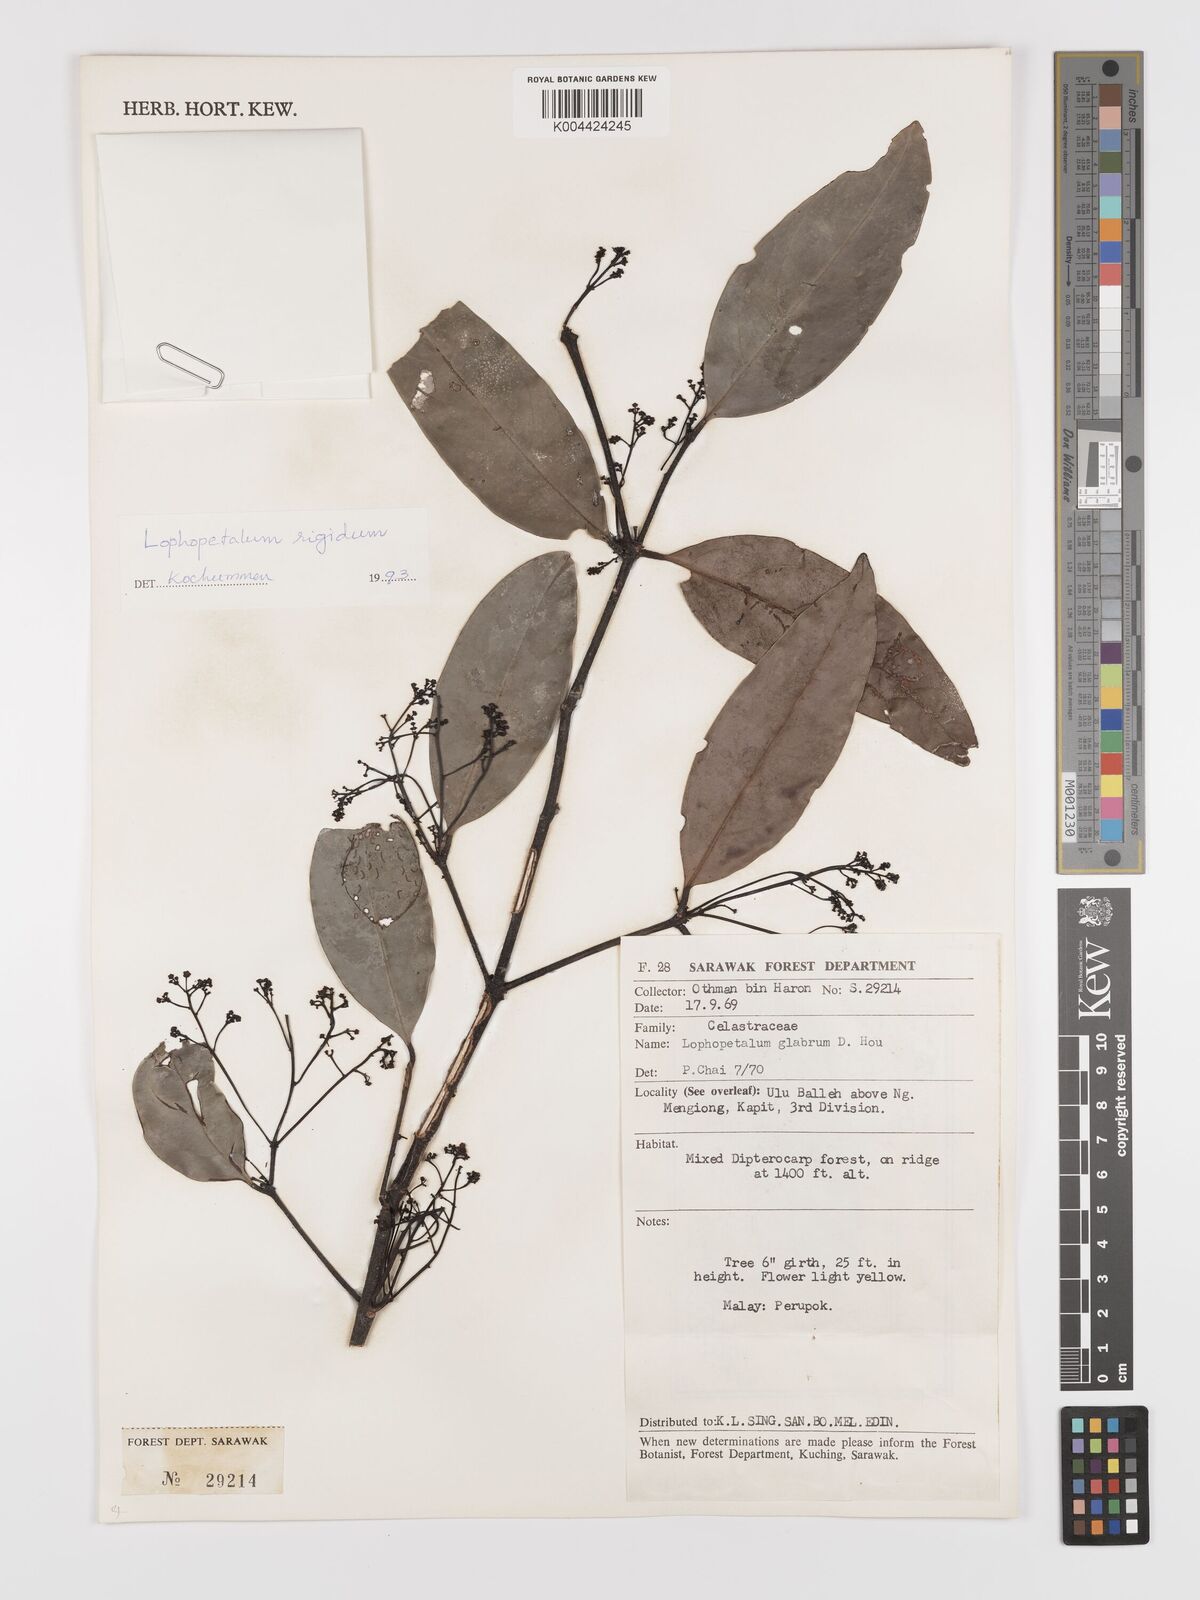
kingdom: Plantae
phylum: Tracheophyta
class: Magnoliopsida
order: Celastrales
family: Celastraceae
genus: Lophopetalum
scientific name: Lophopetalum rigidum
